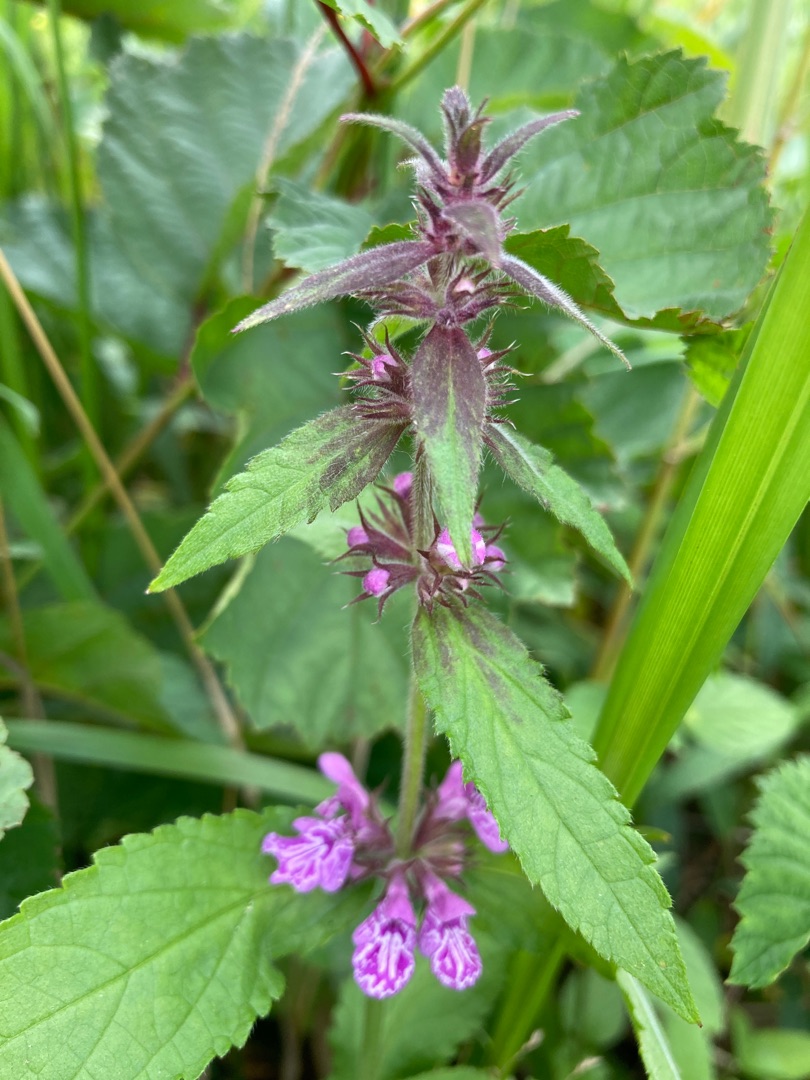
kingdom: Plantae
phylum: Tracheophyta
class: Magnoliopsida
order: Lamiales
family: Lamiaceae
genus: Stachys
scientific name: Stachys palustris
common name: Kær-galtetand
